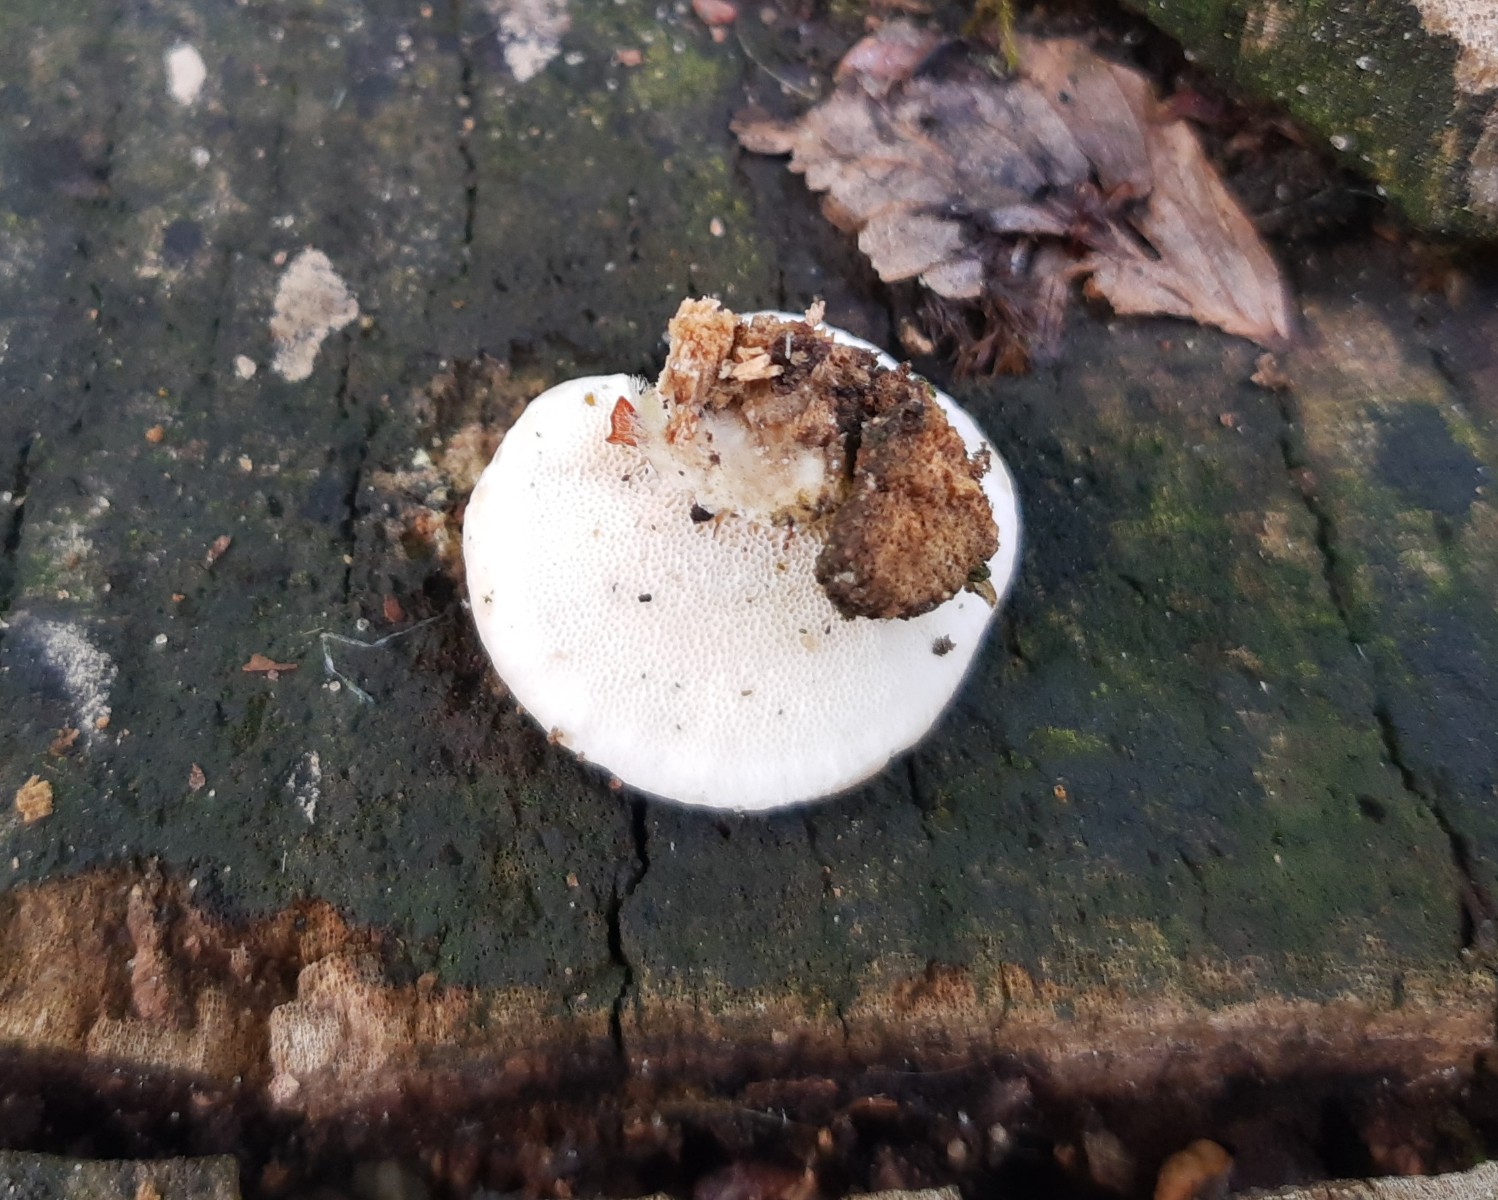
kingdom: Fungi
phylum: Basidiomycota
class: Agaricomycetes
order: Polyporales
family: Polyporaceae
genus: Trametes
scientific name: Trametes hirsuta
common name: håret læderporesvamp
